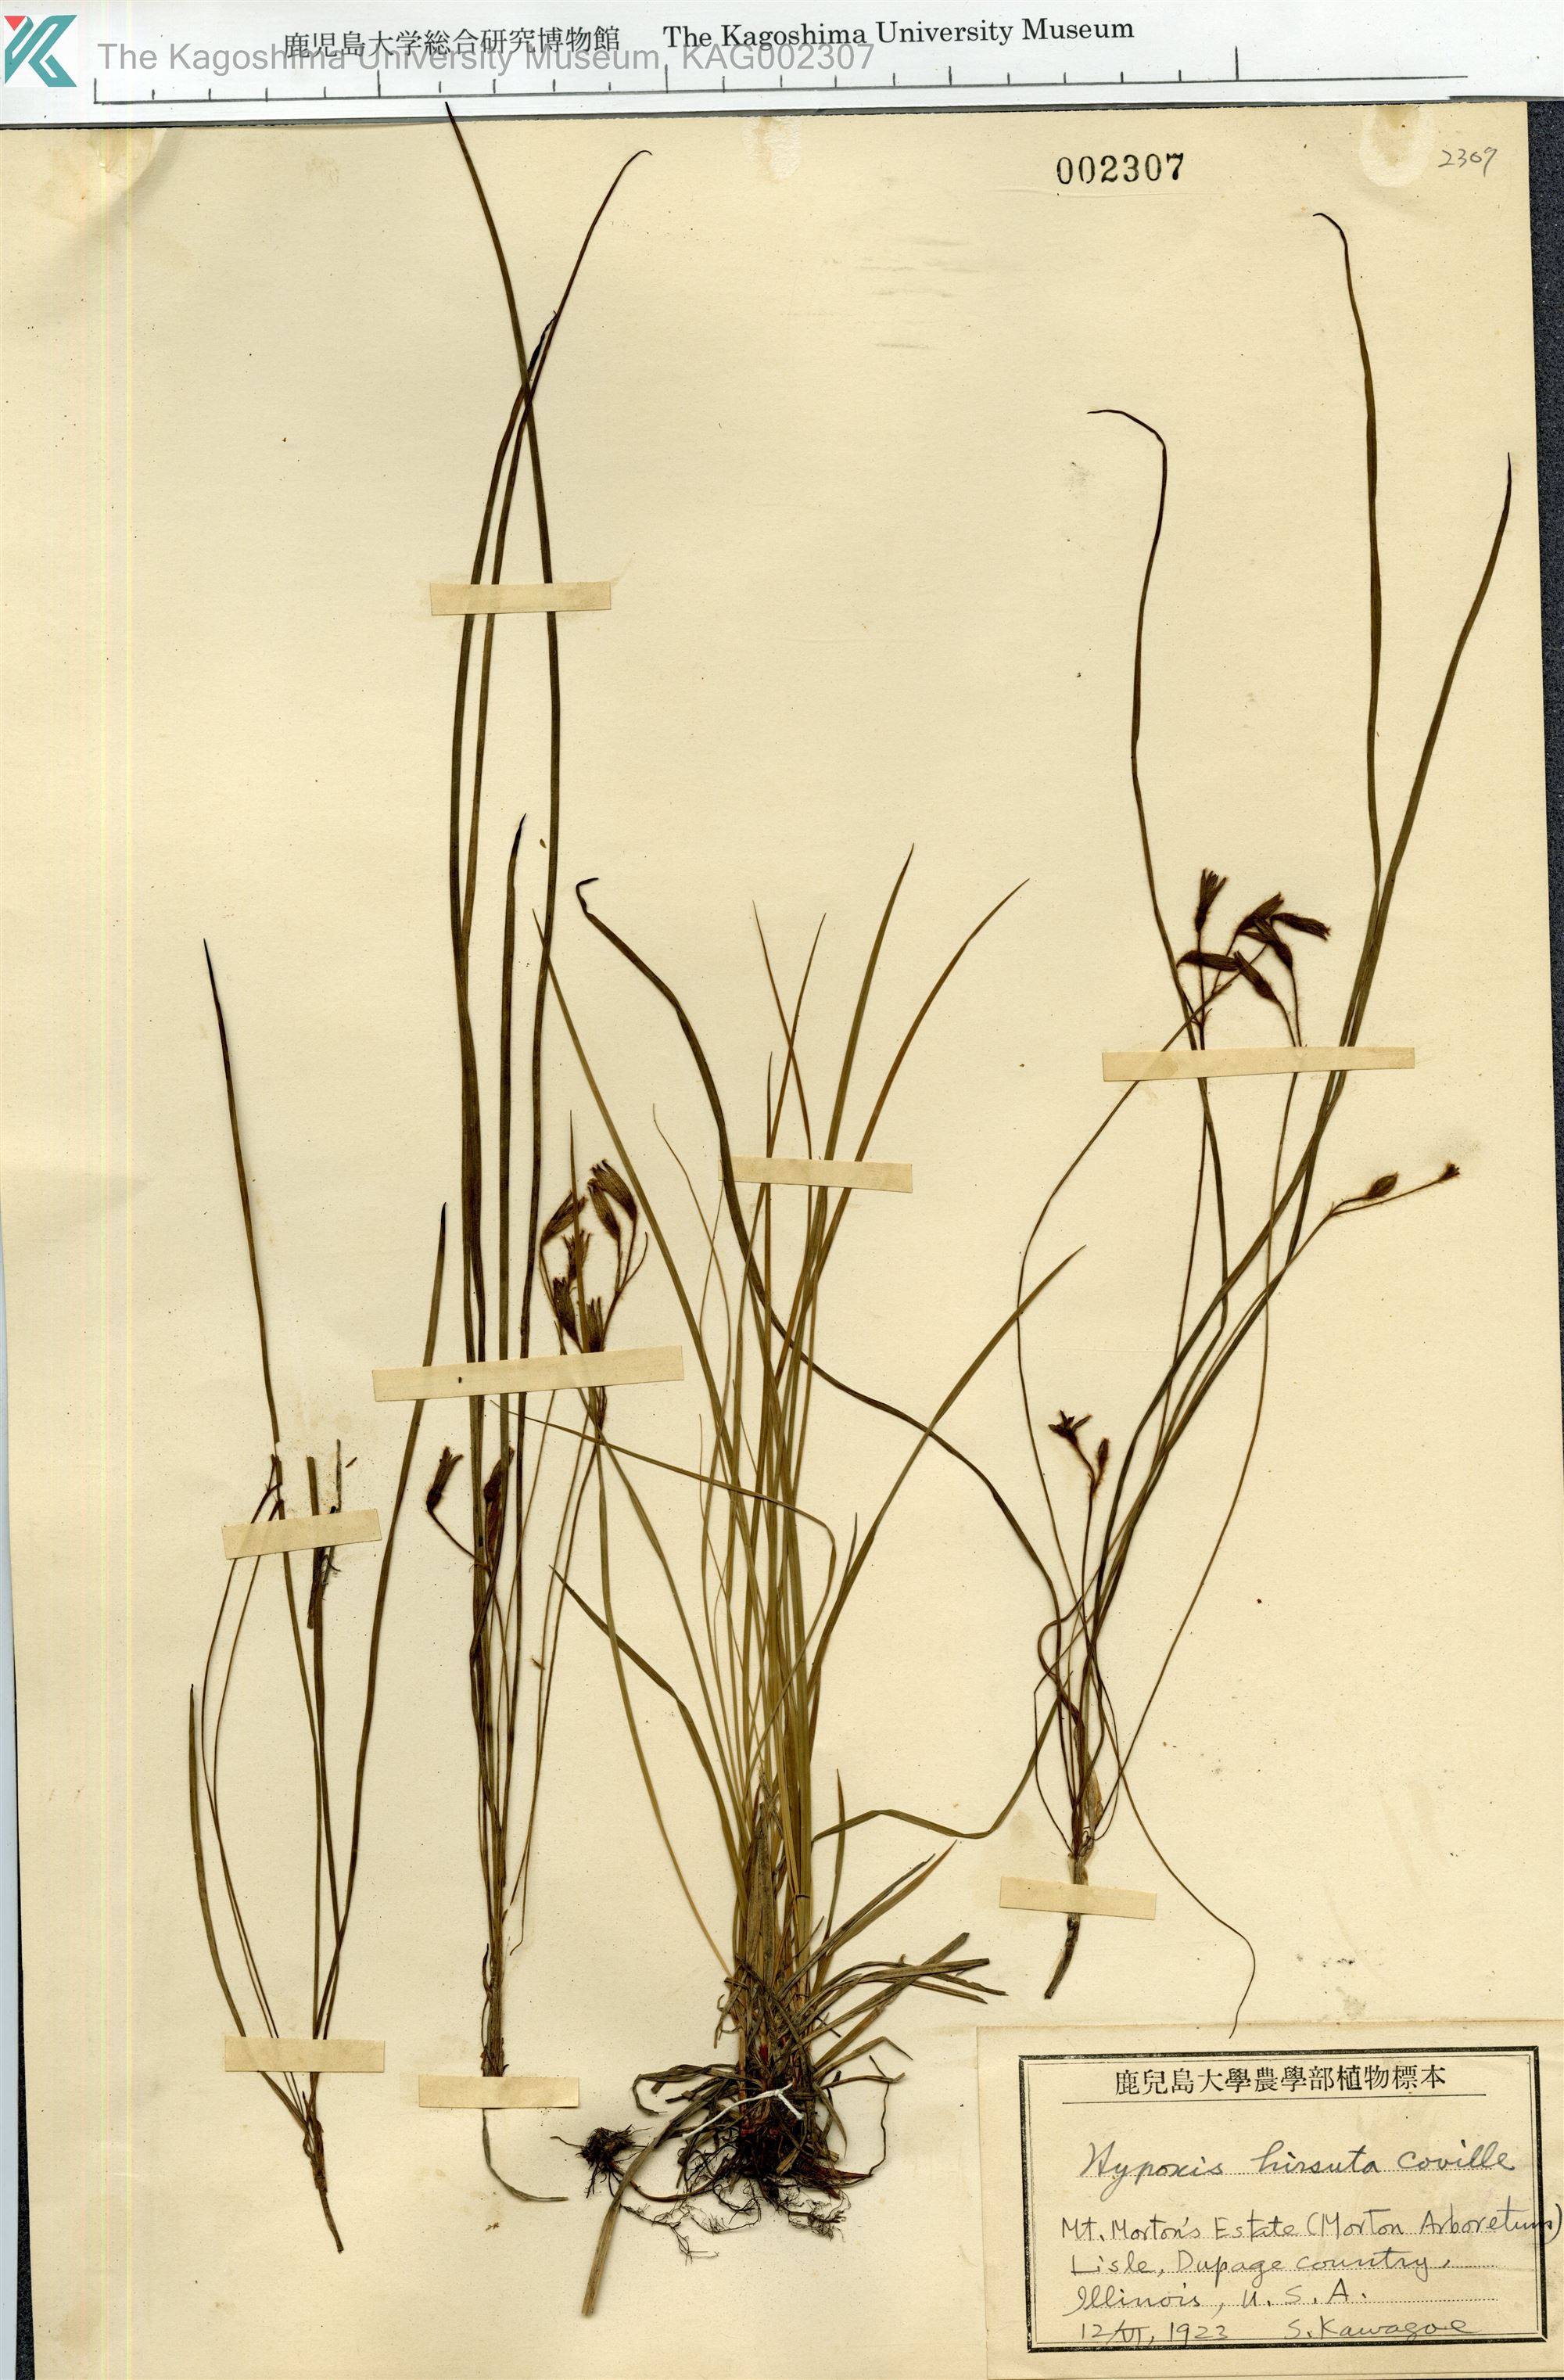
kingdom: Plantae
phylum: Tracheophyta
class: Liliopsida
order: Asparagales
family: Hypoxidaceae
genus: Hypoxis
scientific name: Hypoxis hirsuta
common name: Common goldstar
